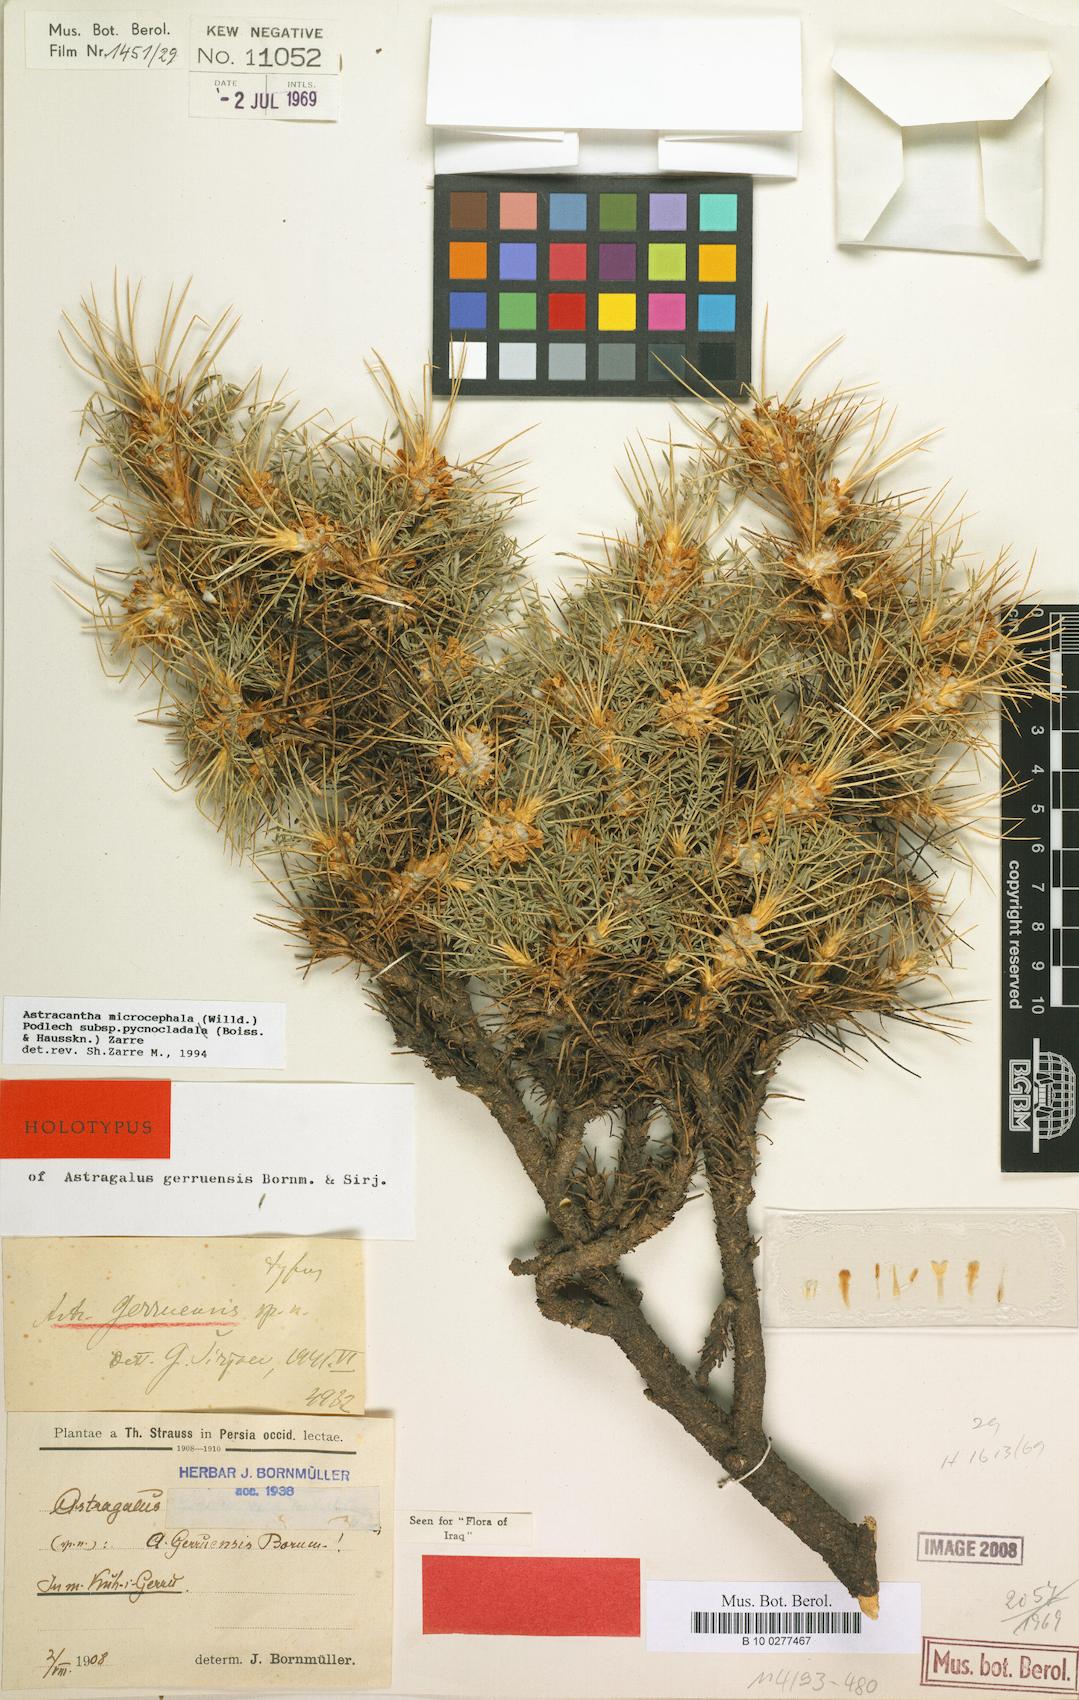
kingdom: Plantae
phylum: Tracheophyta
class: Magnoliopsida
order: Fabales
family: Fabaceae
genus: Astragalus
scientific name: Astragalus microcephalus
